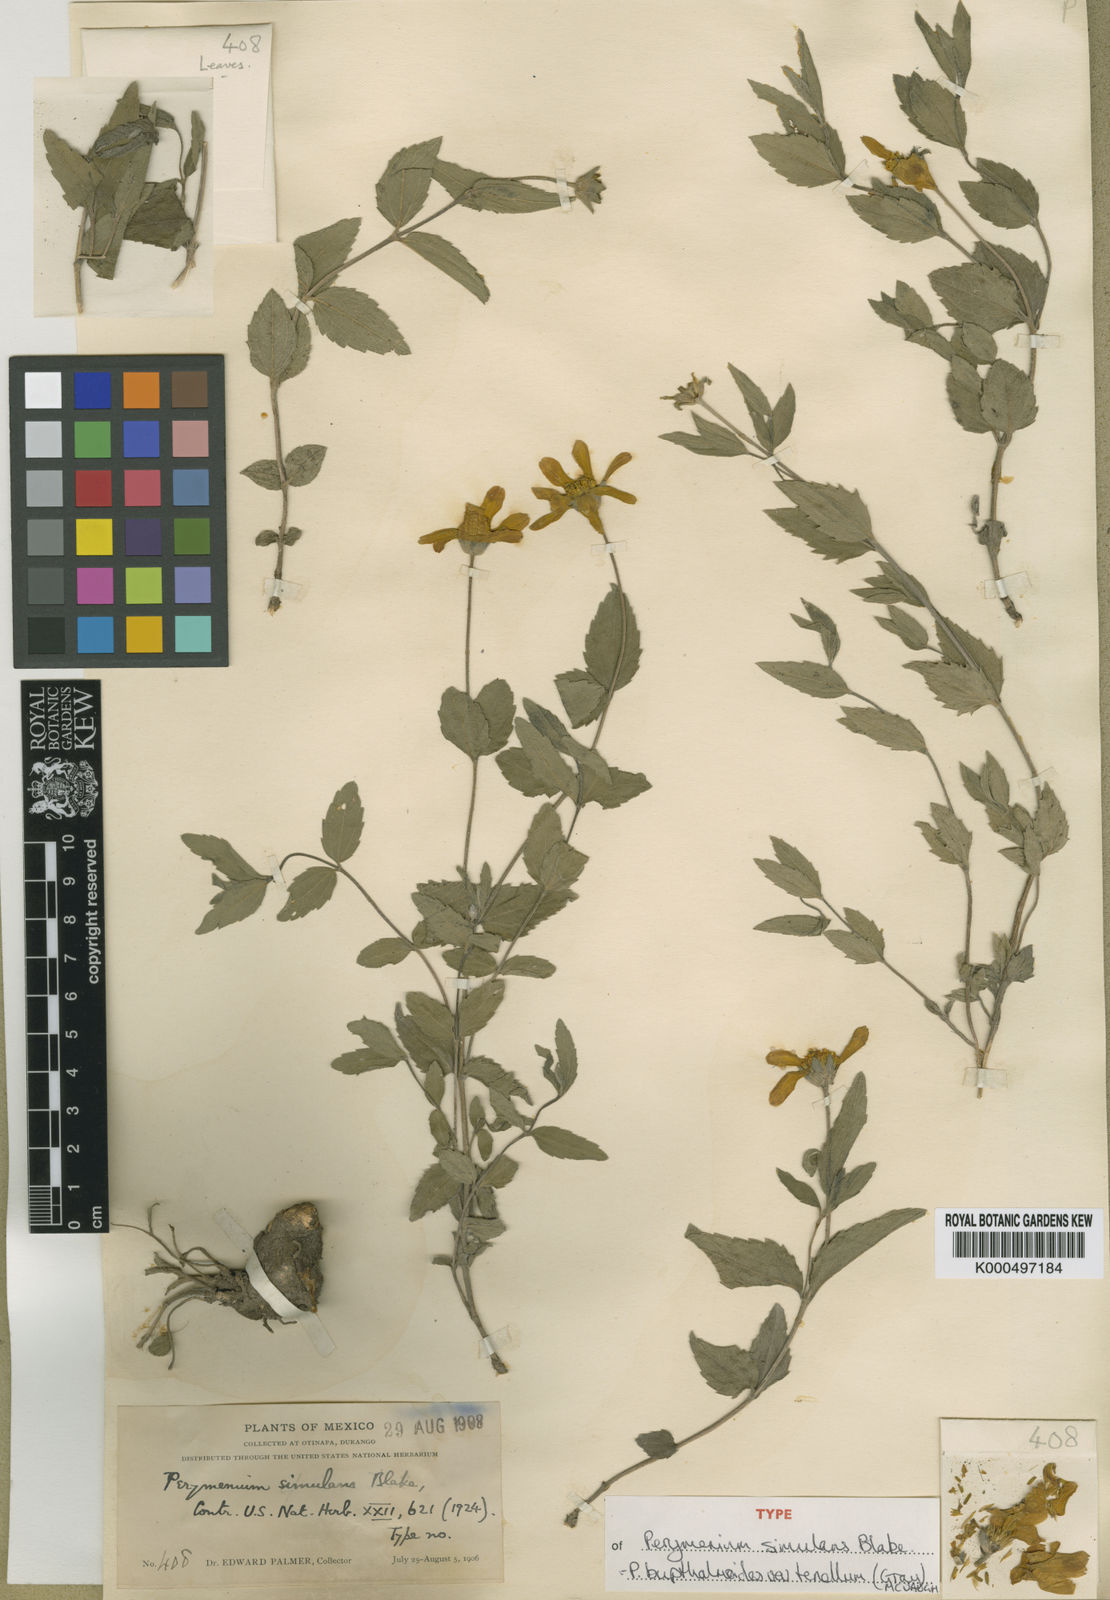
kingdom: Plantae
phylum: Tracheophyta
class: Magnoliopsida
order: Asterales
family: Asteraceae
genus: Perymenium
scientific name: Perymenium buphthalmoides
